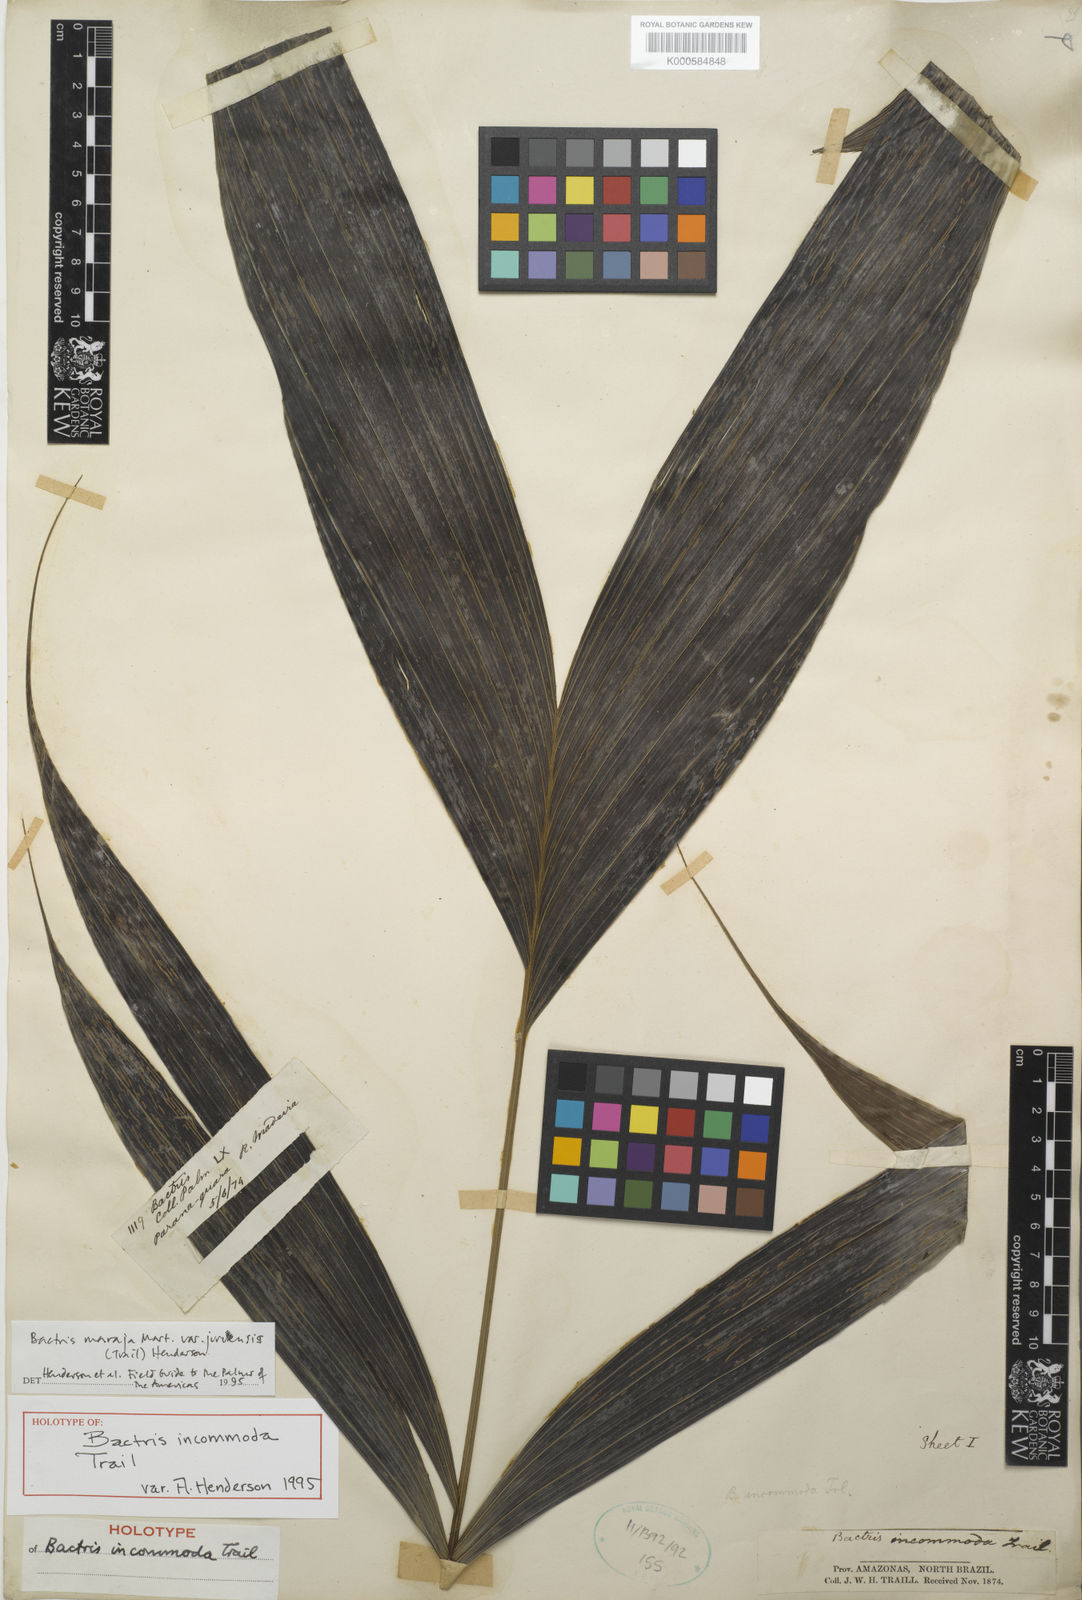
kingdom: Plantae
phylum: Tracheophyta
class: Liliopsida
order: Arecales
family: Arecaceae
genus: Bactris
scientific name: Bactris maraja
